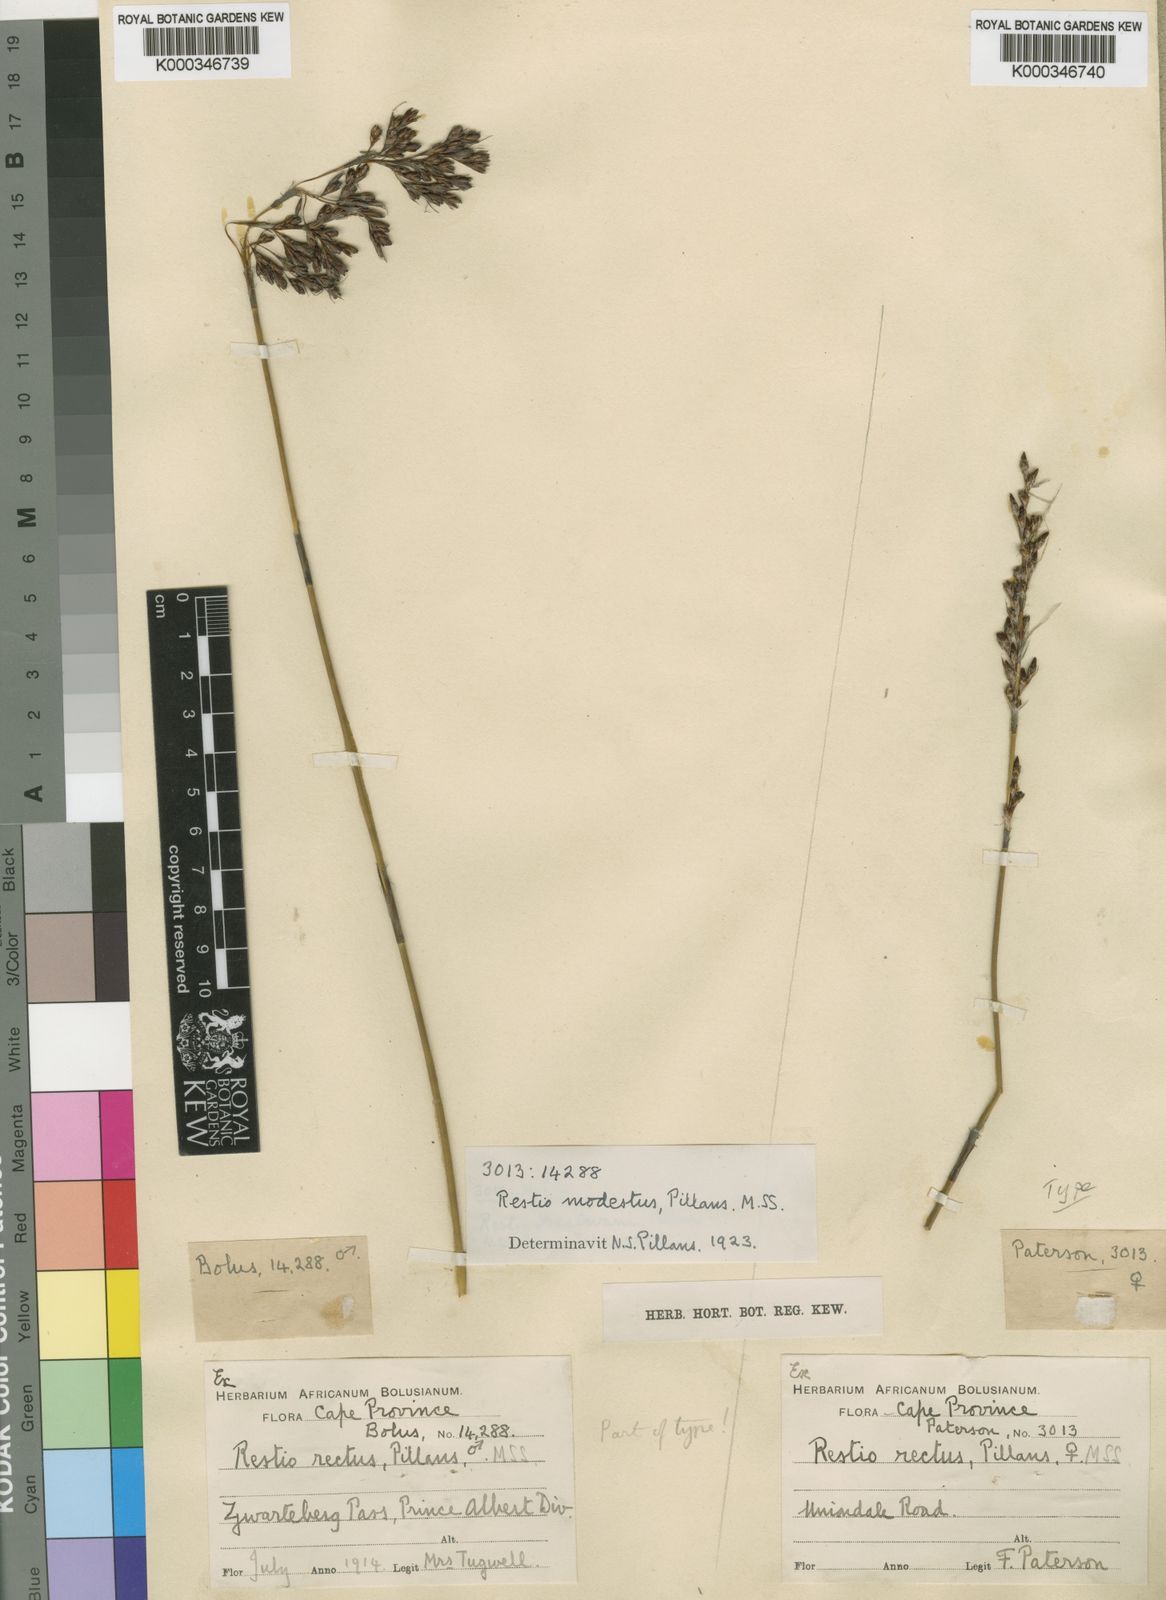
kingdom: Plantae
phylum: Tracheophyta
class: Liliopsida
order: Poales
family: Restionaceae
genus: Rhodocoma
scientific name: Rhodocoma fruticosa
